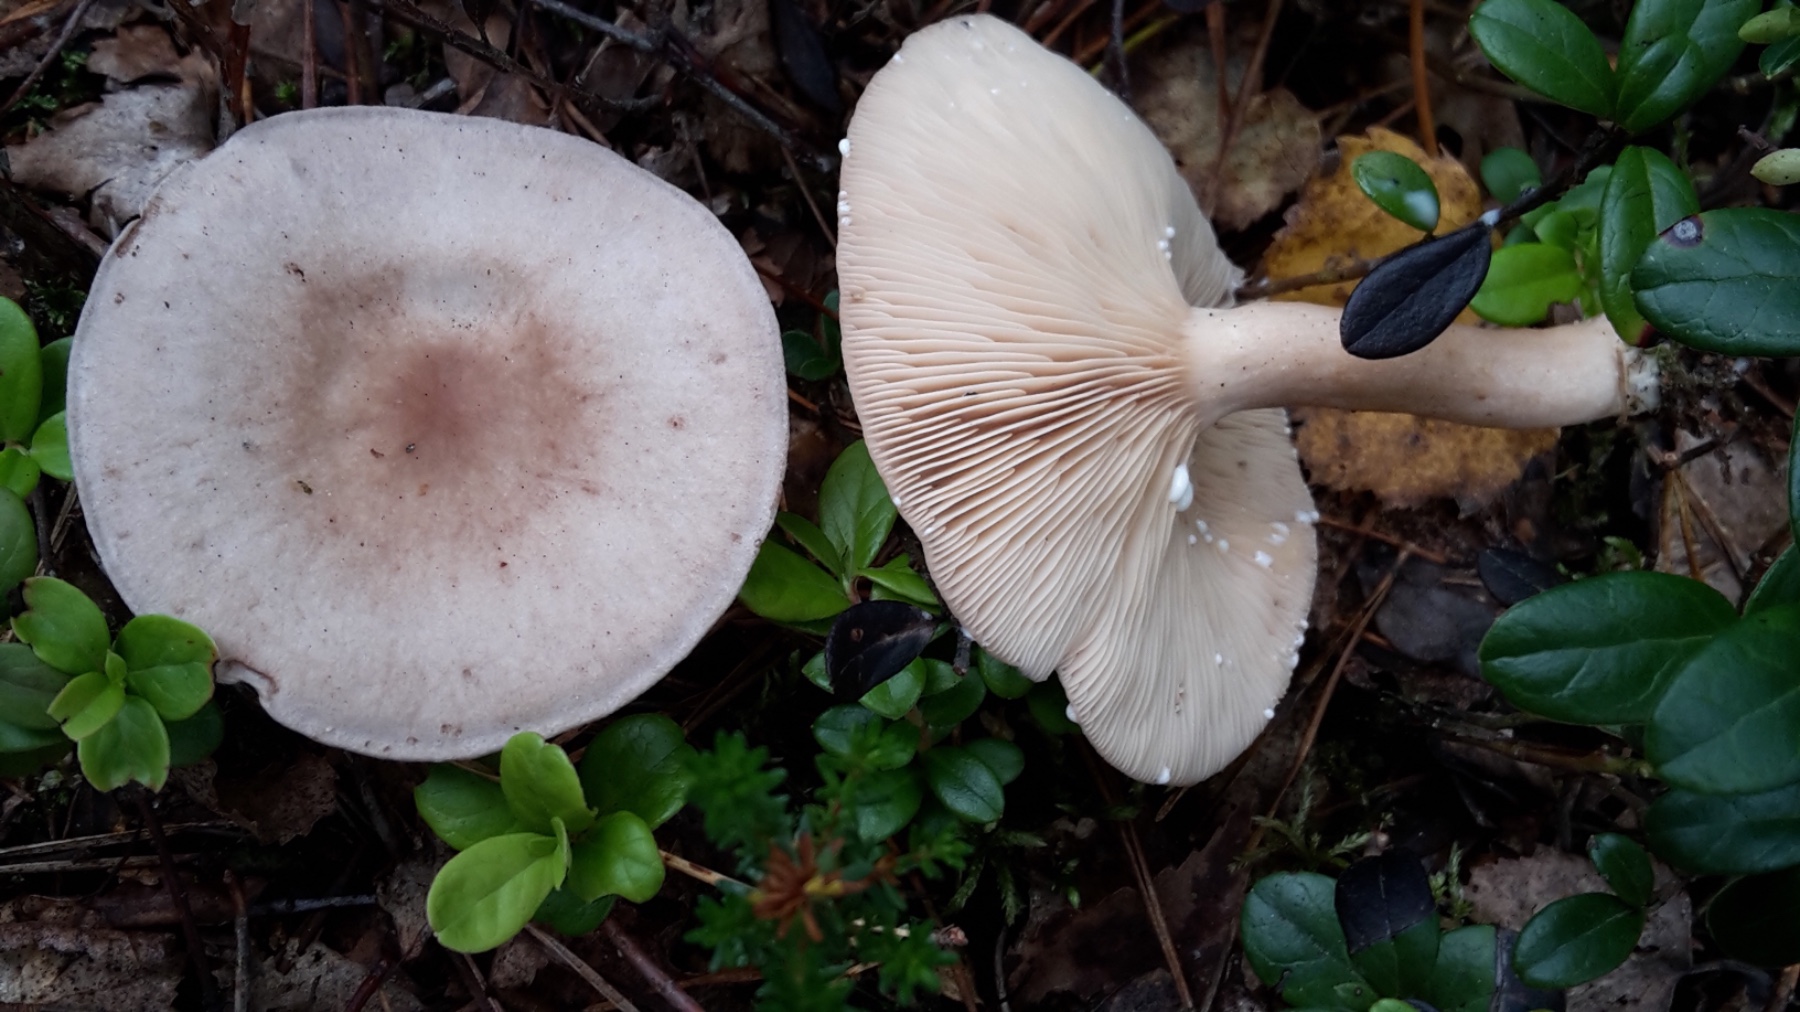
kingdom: Fungi
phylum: Basidiomycota
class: Agaricomycetes
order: Russulales
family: Russulaceae
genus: Lactarius
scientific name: Lactarius vietus
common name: violetgrå mælkehat
